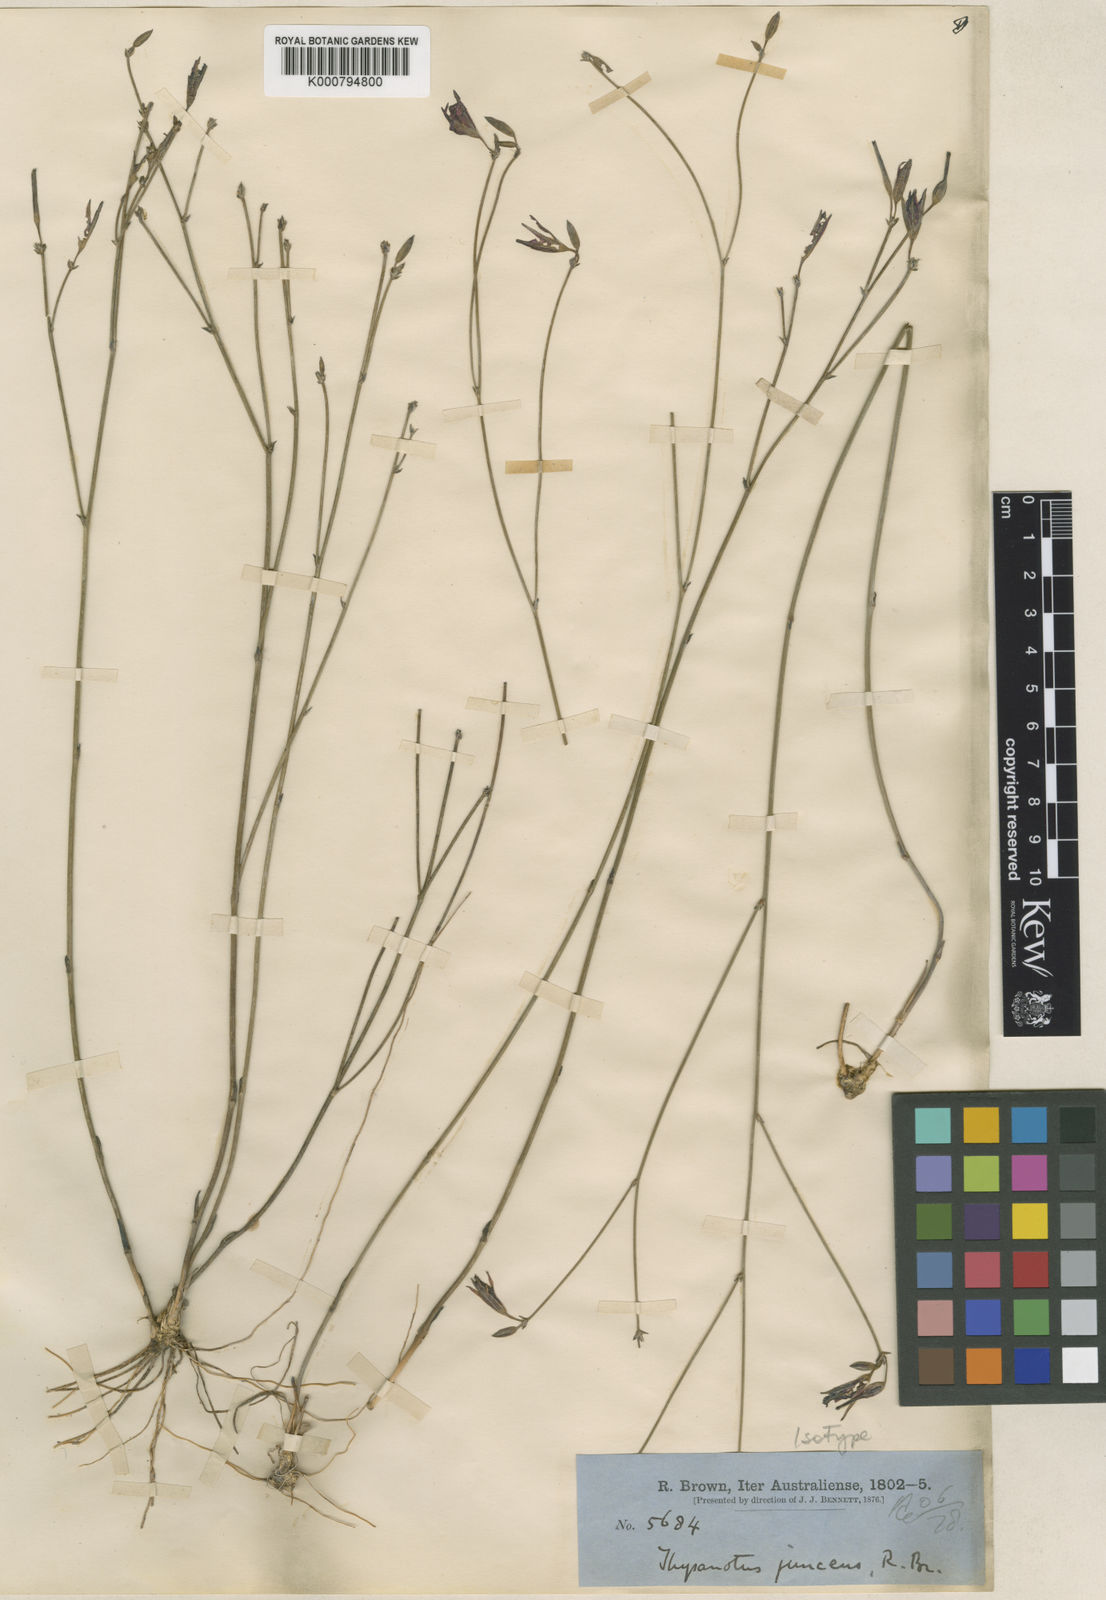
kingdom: Plantae
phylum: Tracheophyta
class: Liliopsida
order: Asparagales
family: Asparagaceae
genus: Thysanotus
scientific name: Thysanotus juncifolius
